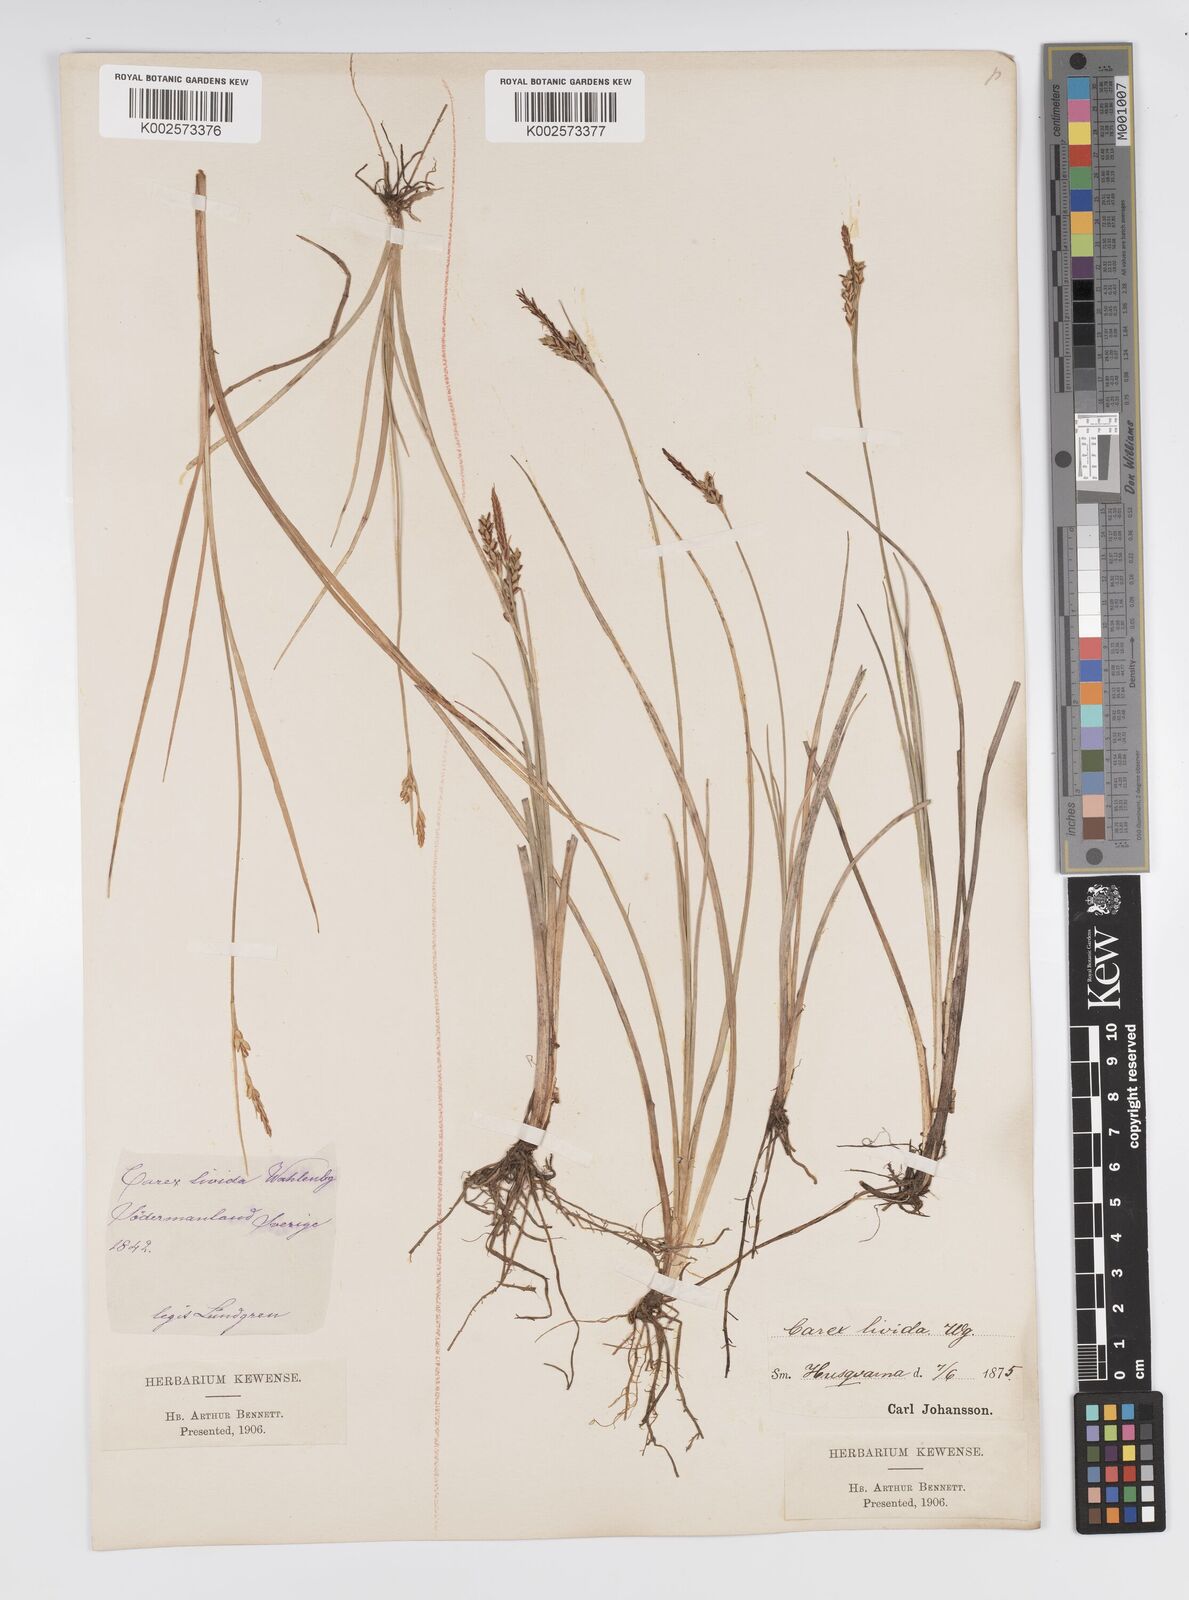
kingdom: Plantae
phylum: Tracheophyta
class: Liliopsida
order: Poales
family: Cyperaceae
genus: Carex
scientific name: Carex livida
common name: Livid sedge
